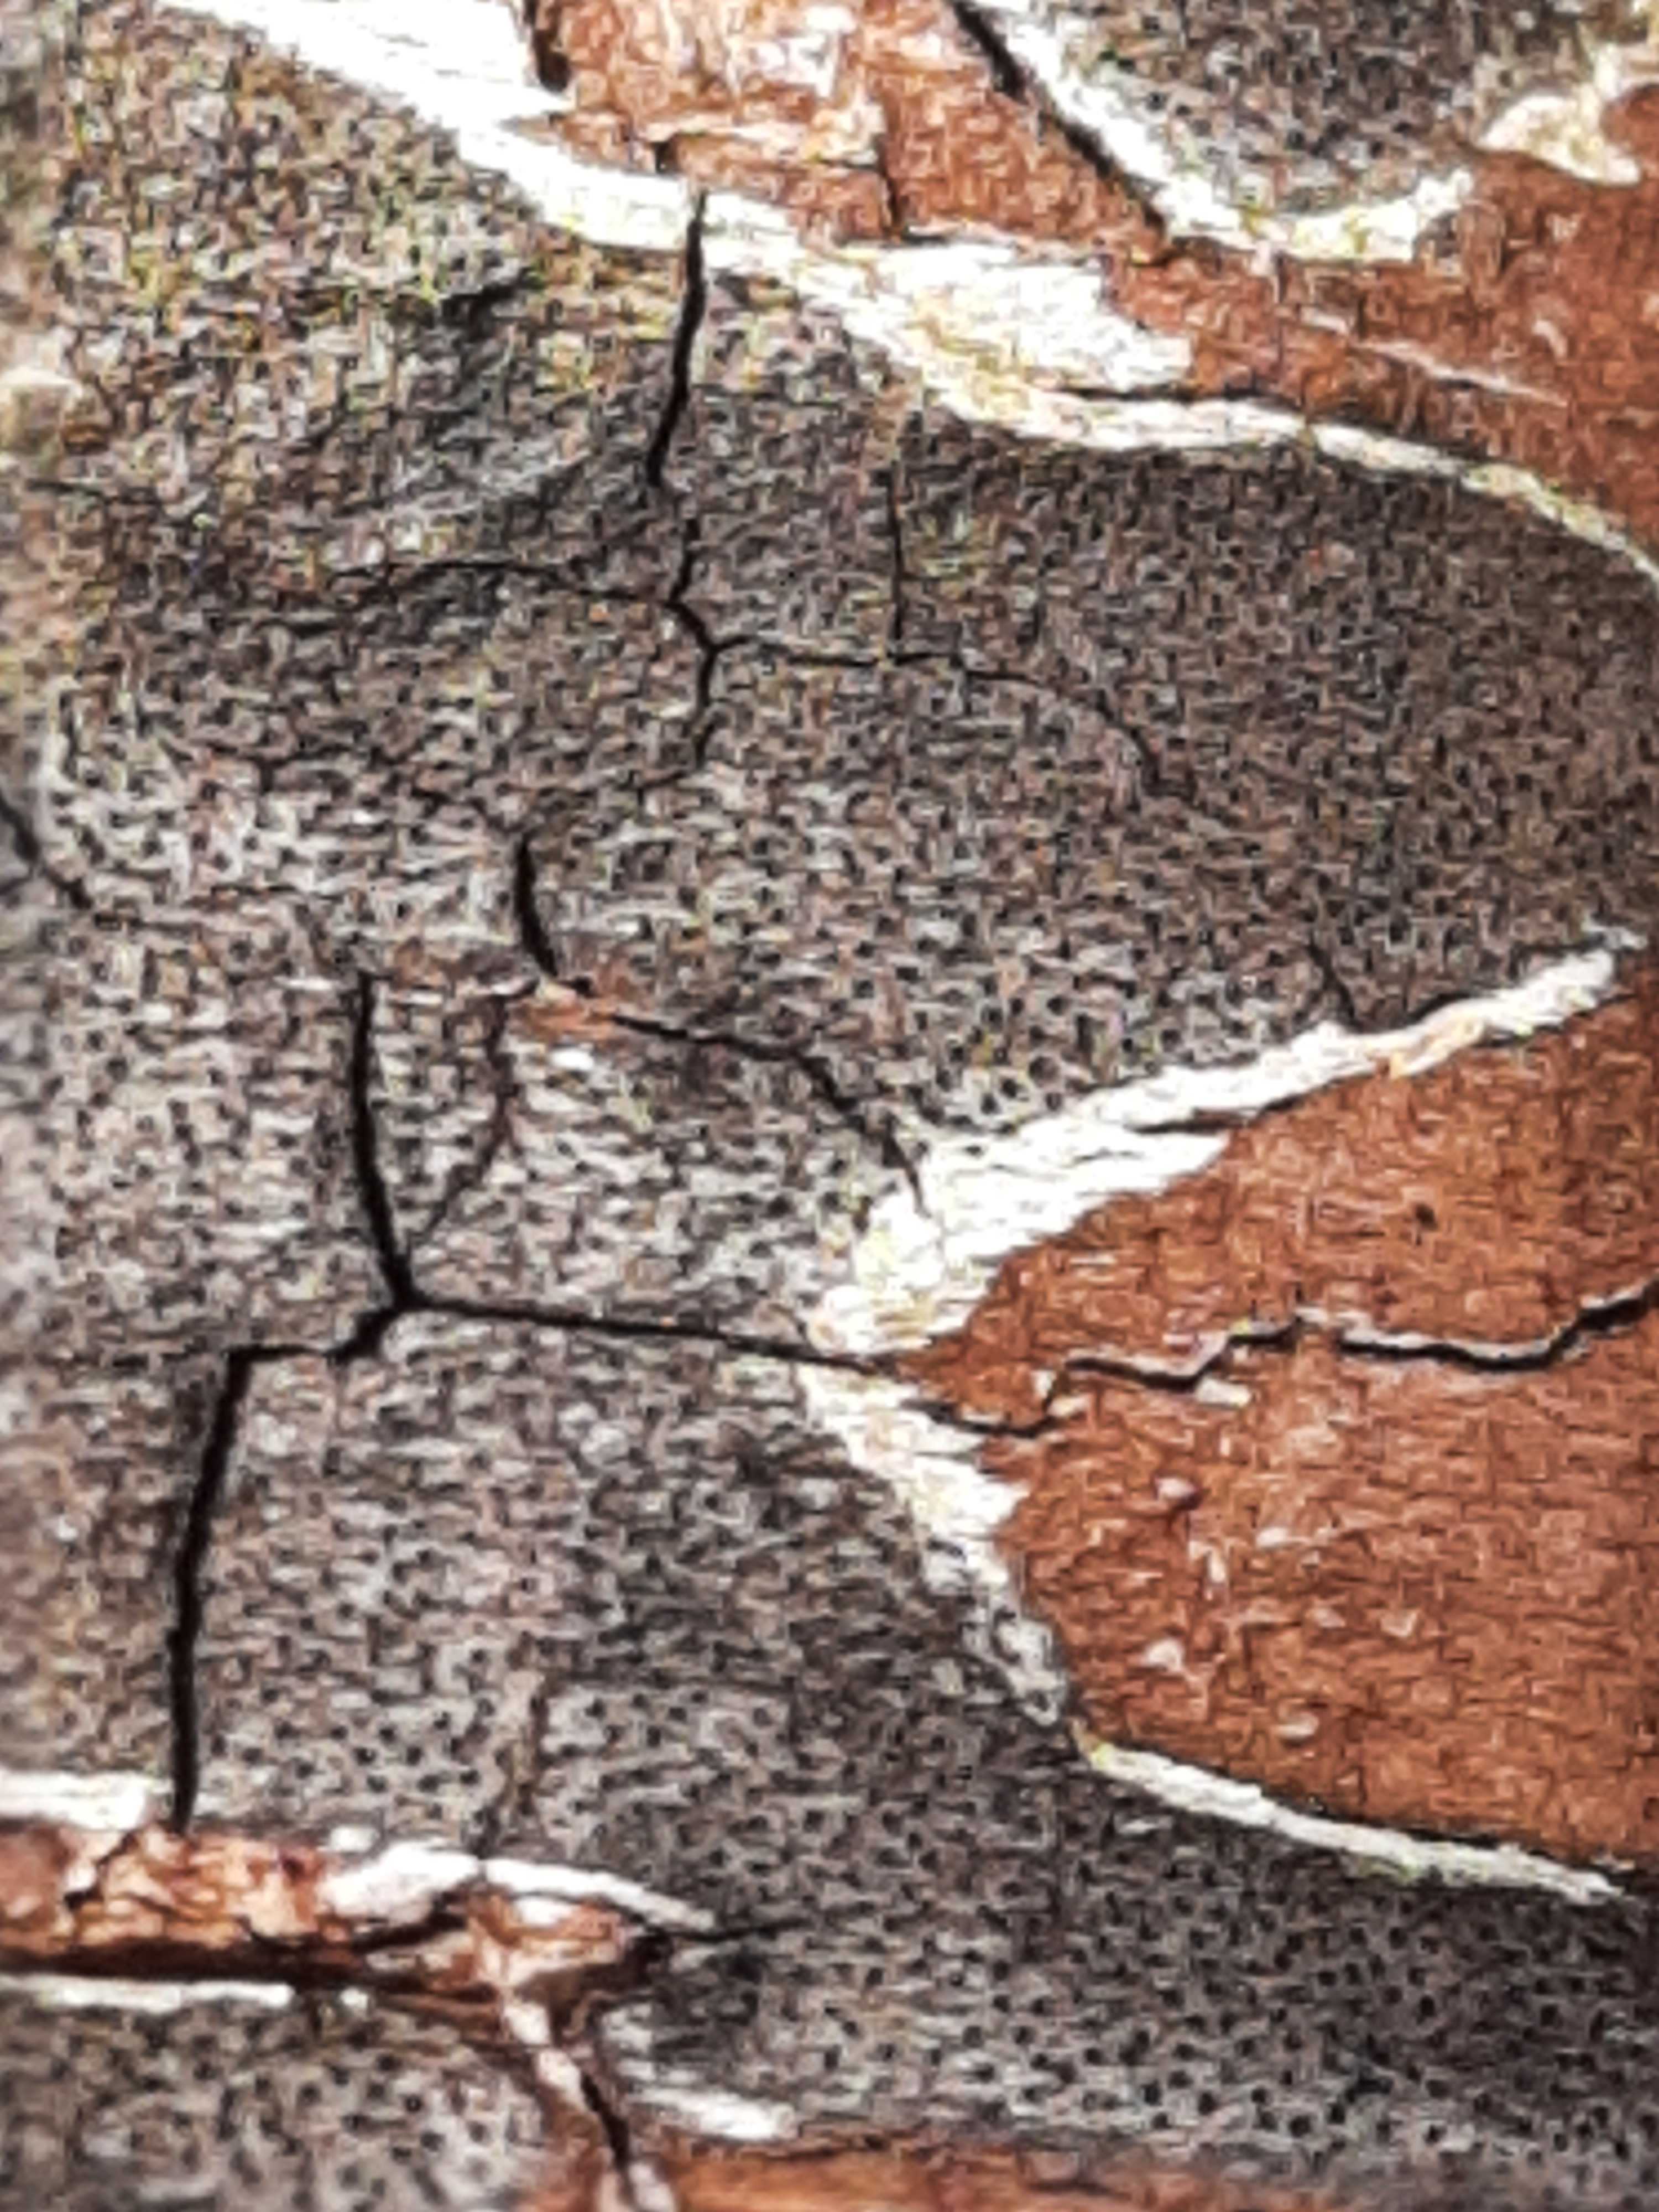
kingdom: Fungi
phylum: Ascomycota
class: Sordariomycetes
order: Xylariales
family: Diatrypaceae
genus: Diatrype
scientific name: Diatrype
